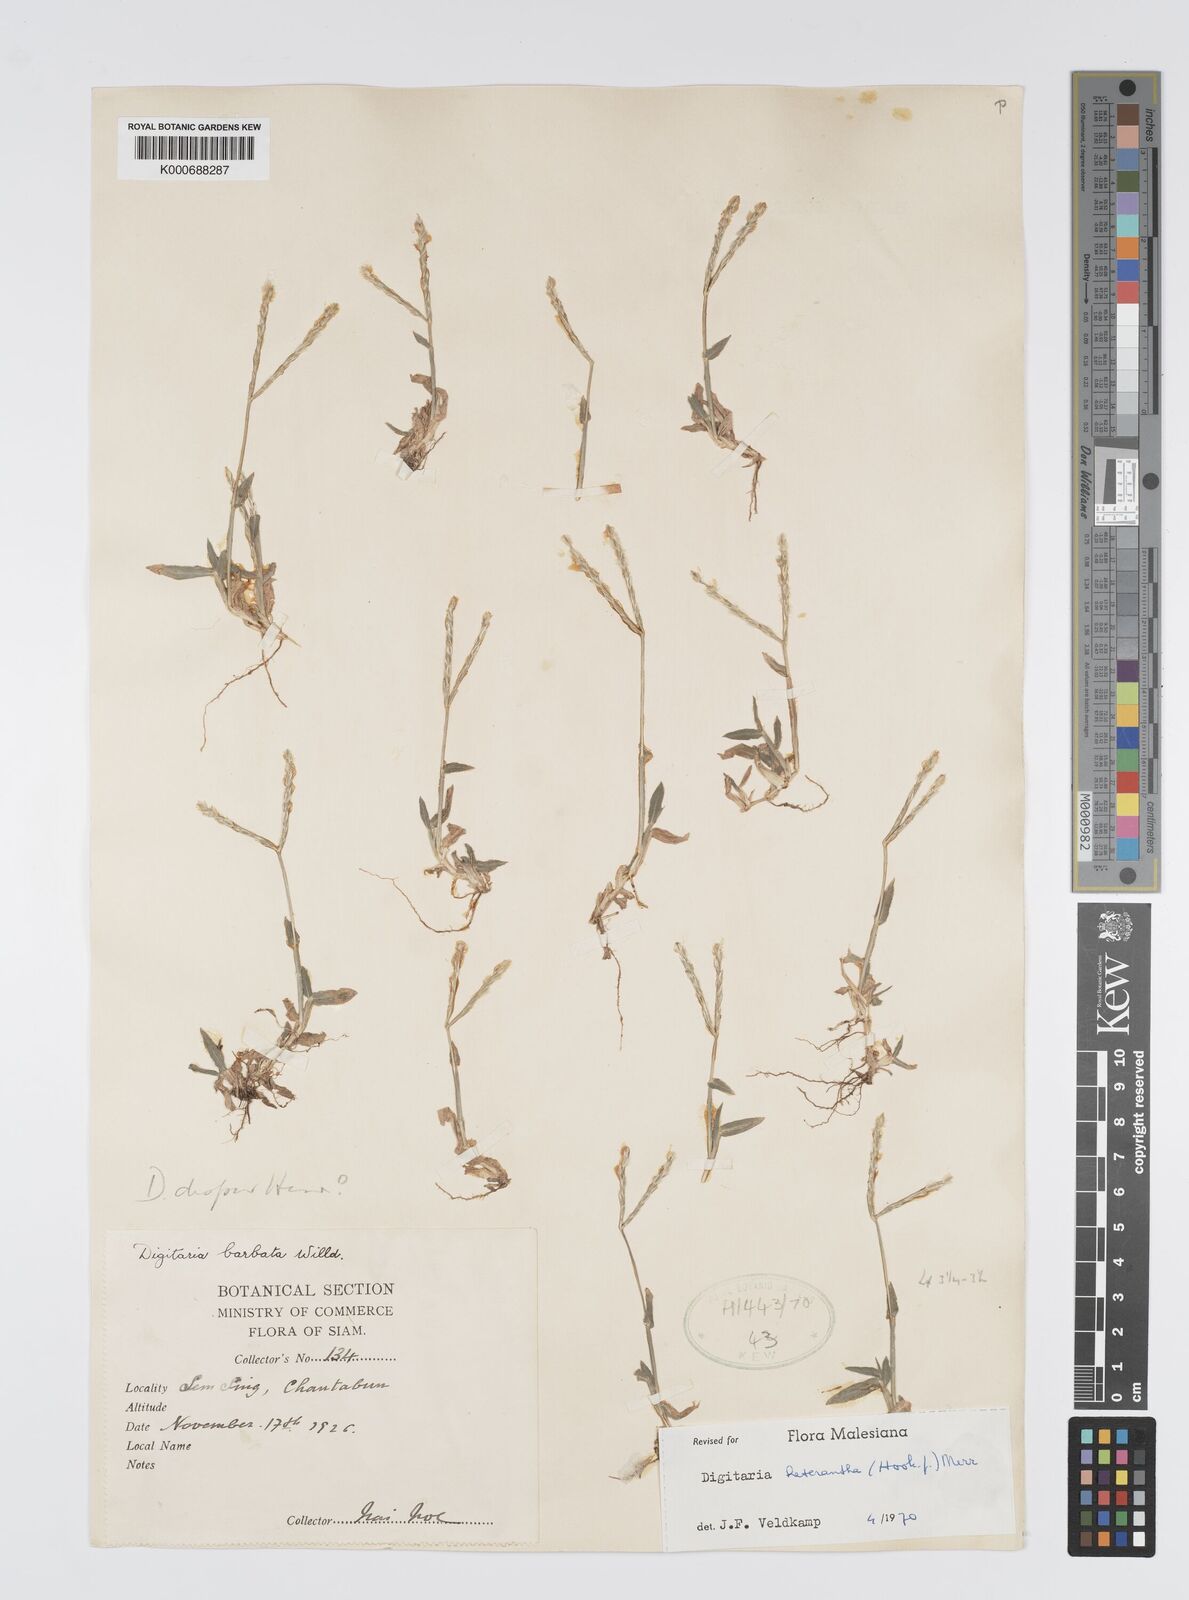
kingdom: Plantae
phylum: Tracheophyta
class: Liliopsida
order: Poales
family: Poaceae
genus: Digitaria
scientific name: Digitaria heterantha
